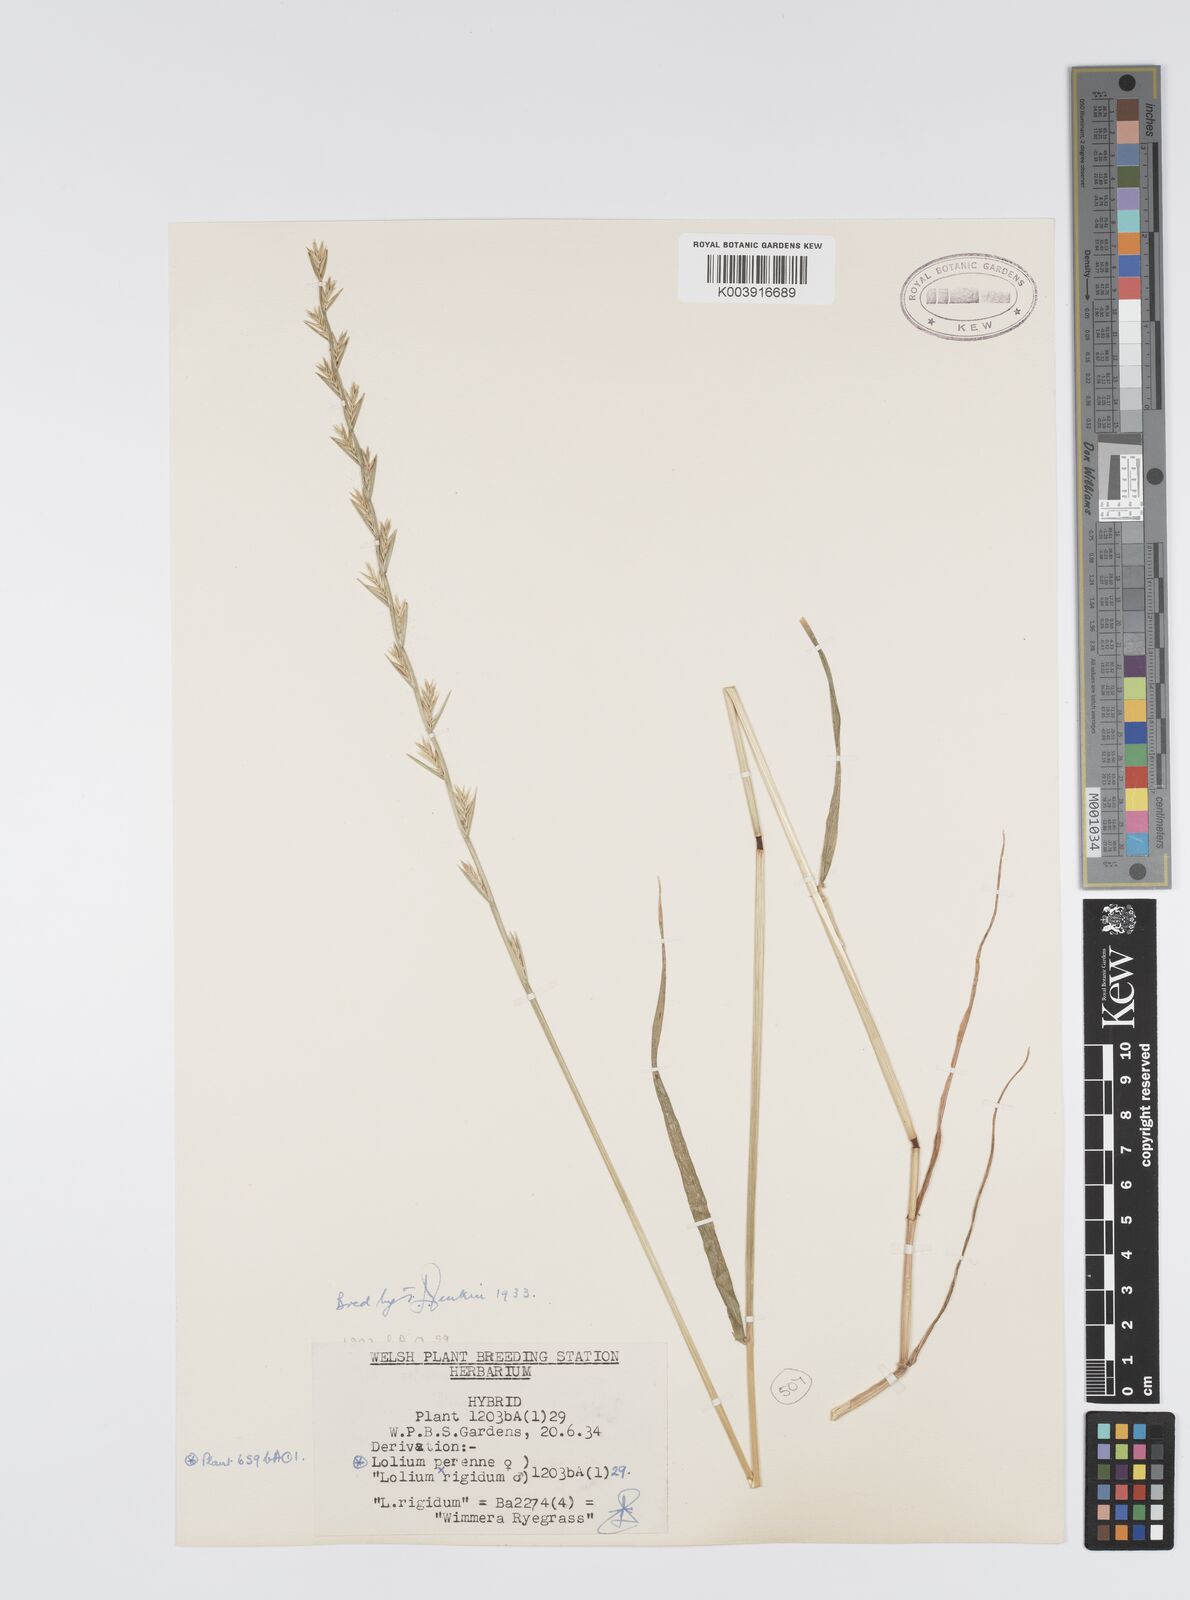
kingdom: Plantae
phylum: Tracheophyta
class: Liliopsida
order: Poales
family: Poaceae
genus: Lolium
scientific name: Lolium perenne
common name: Perennial ryegrass
